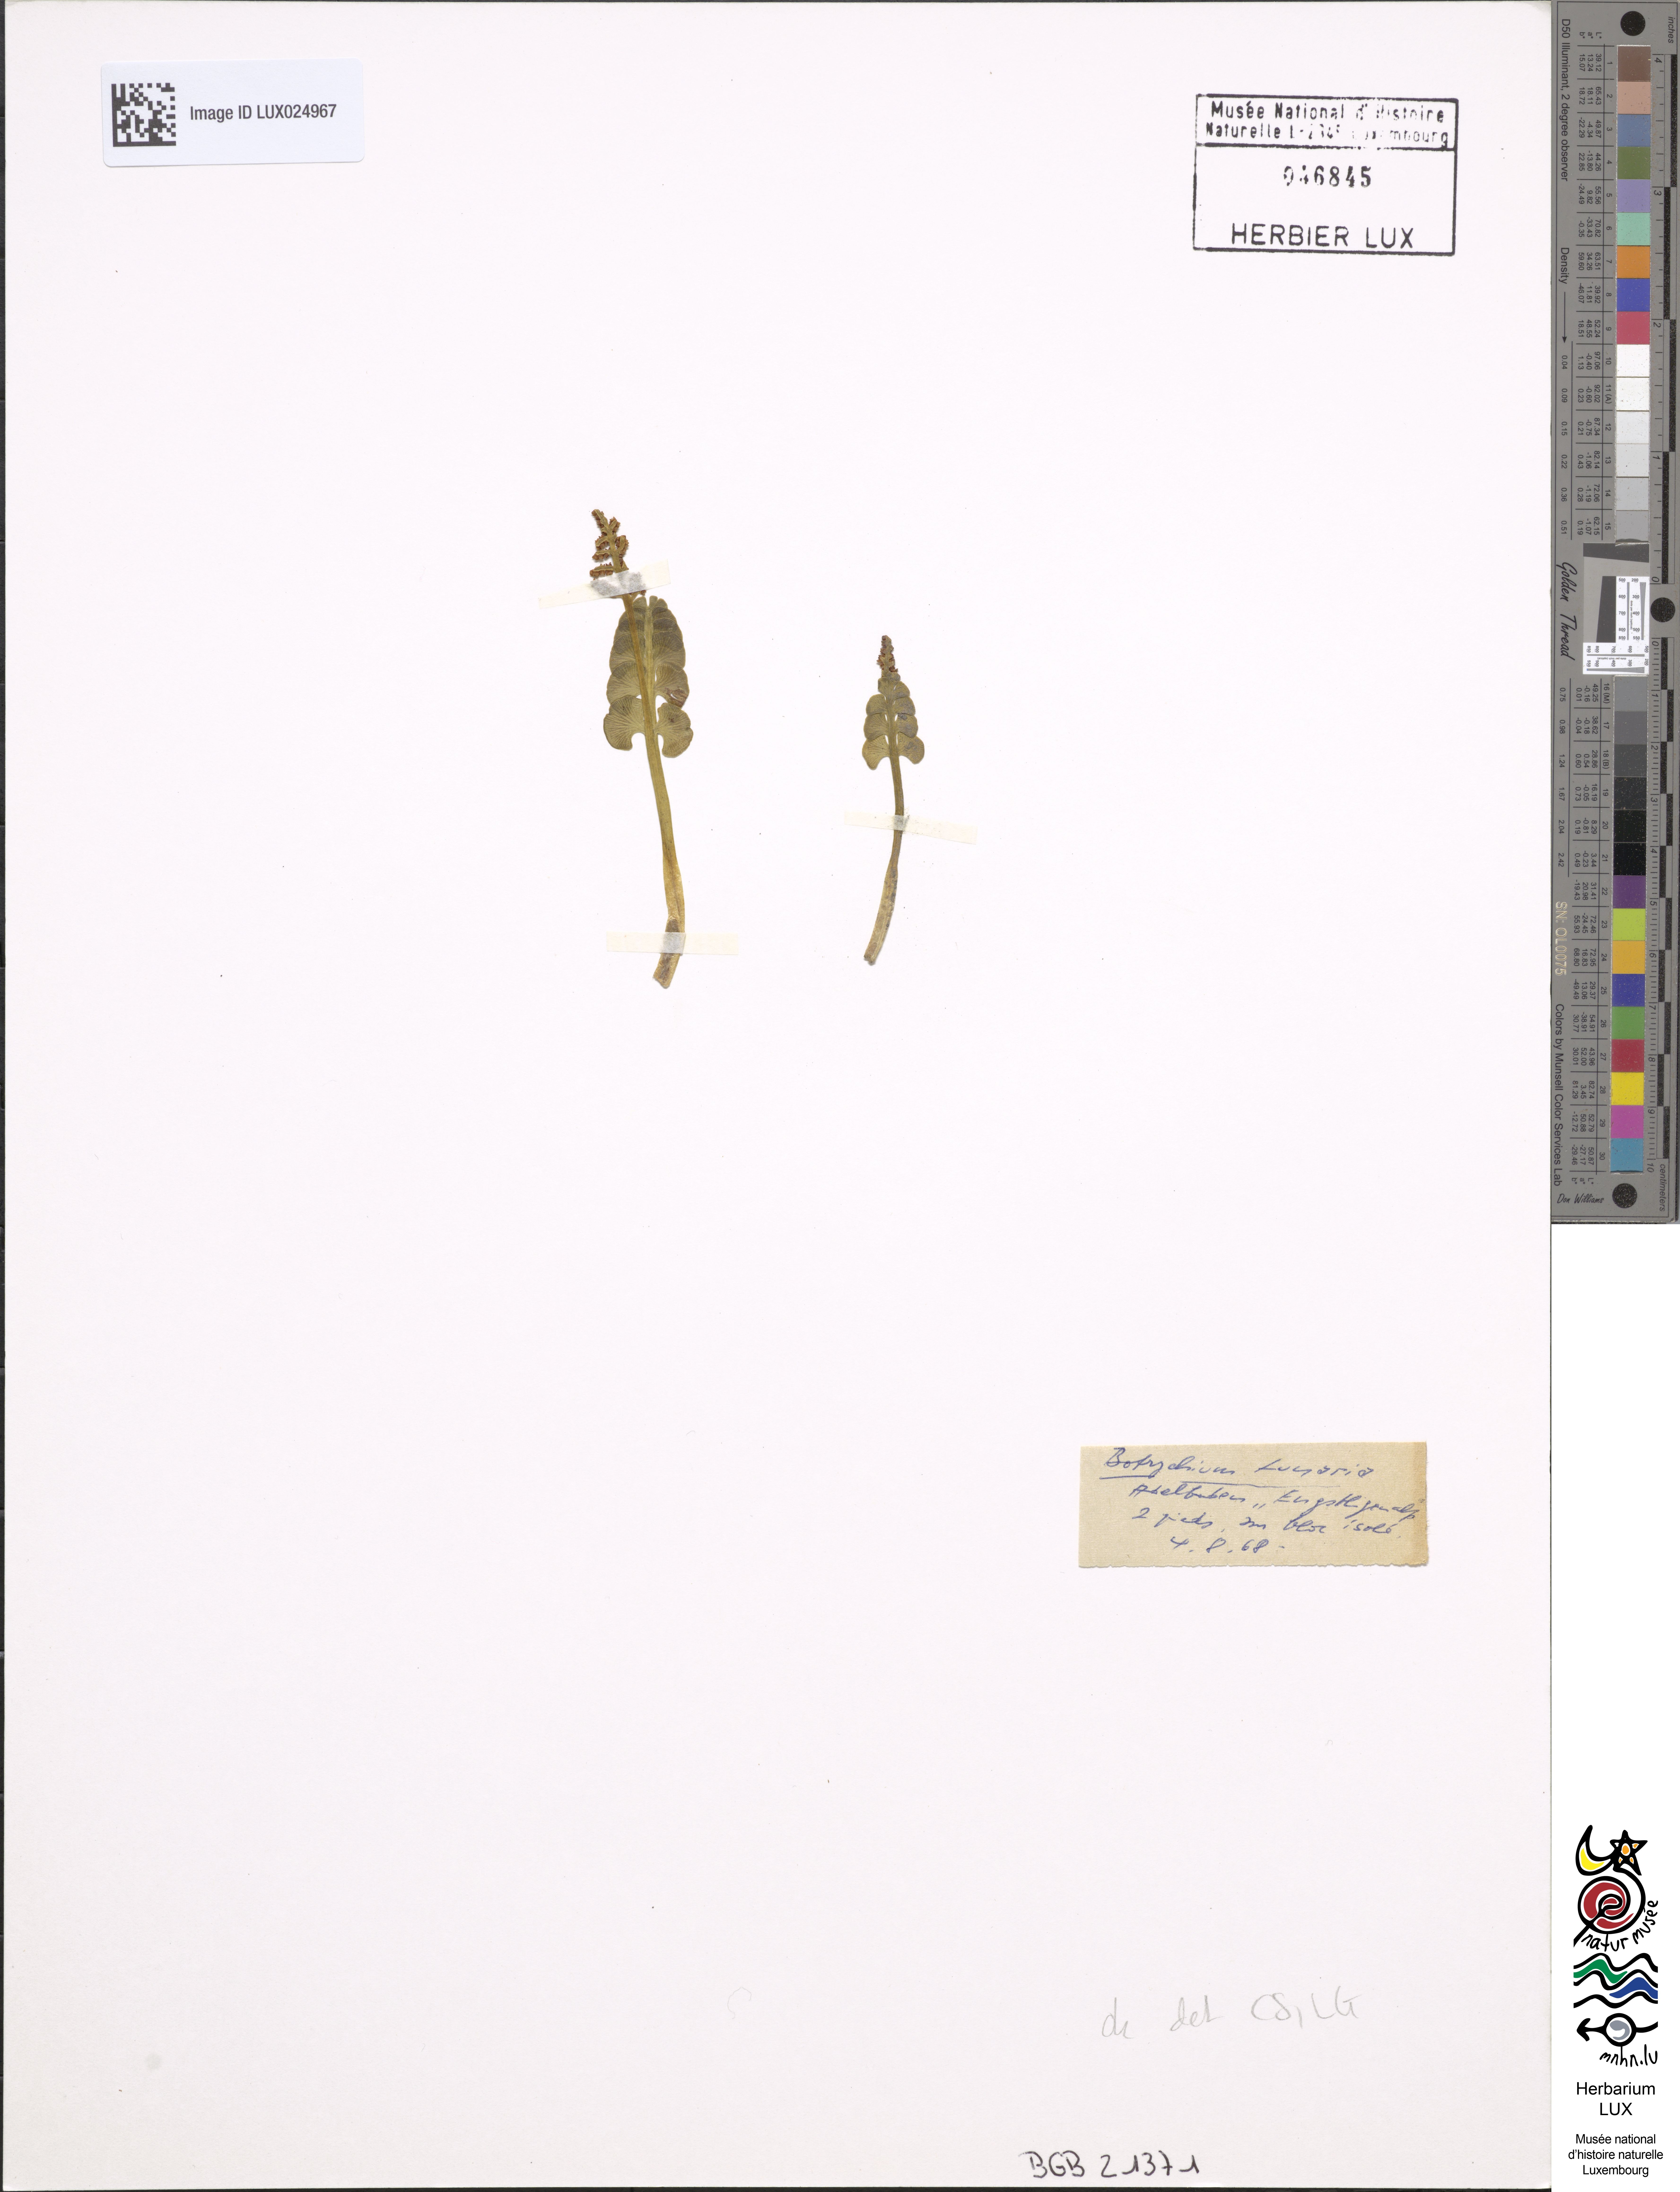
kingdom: Plantae
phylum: Tracheophyta
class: Polypodiopsida
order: Ophioglossales
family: Ophioglossaceae
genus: Botrychium
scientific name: Botrychium lunaria
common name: Moonwort
